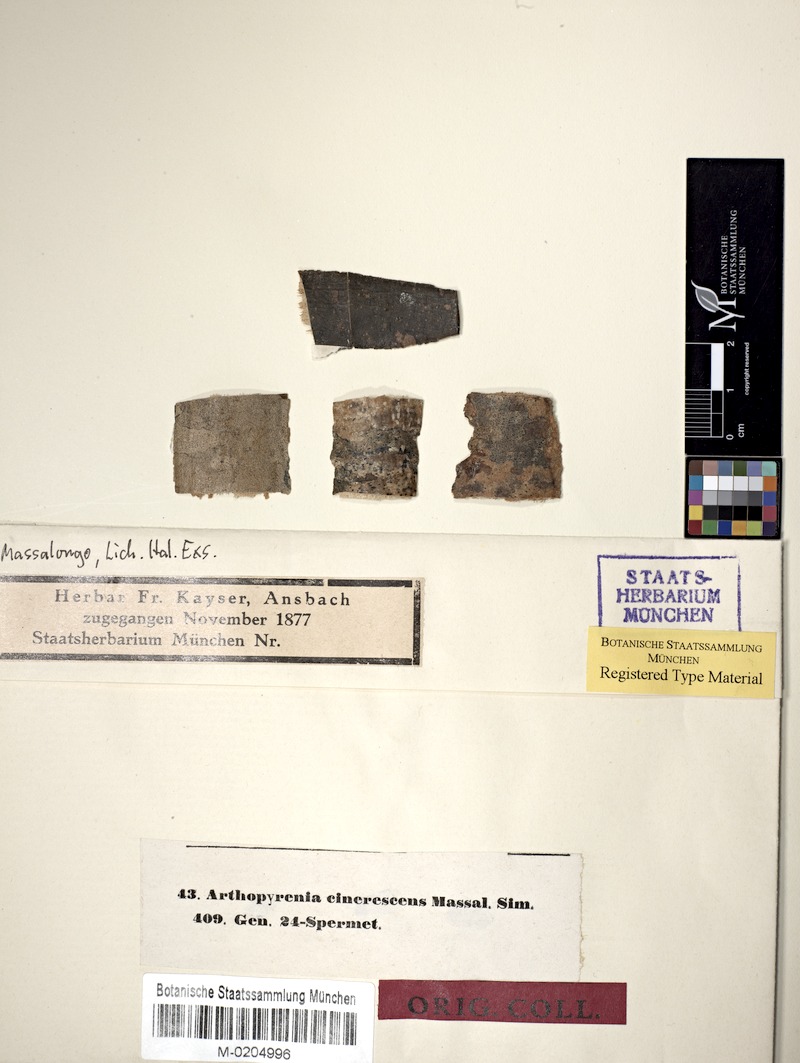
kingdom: Fungi
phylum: Ascomycota
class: Dothideomycetes
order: Pleosporales
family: Arthopyreniaceae
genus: Arthopyrenia
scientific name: Arthopyrenia cinerescens
